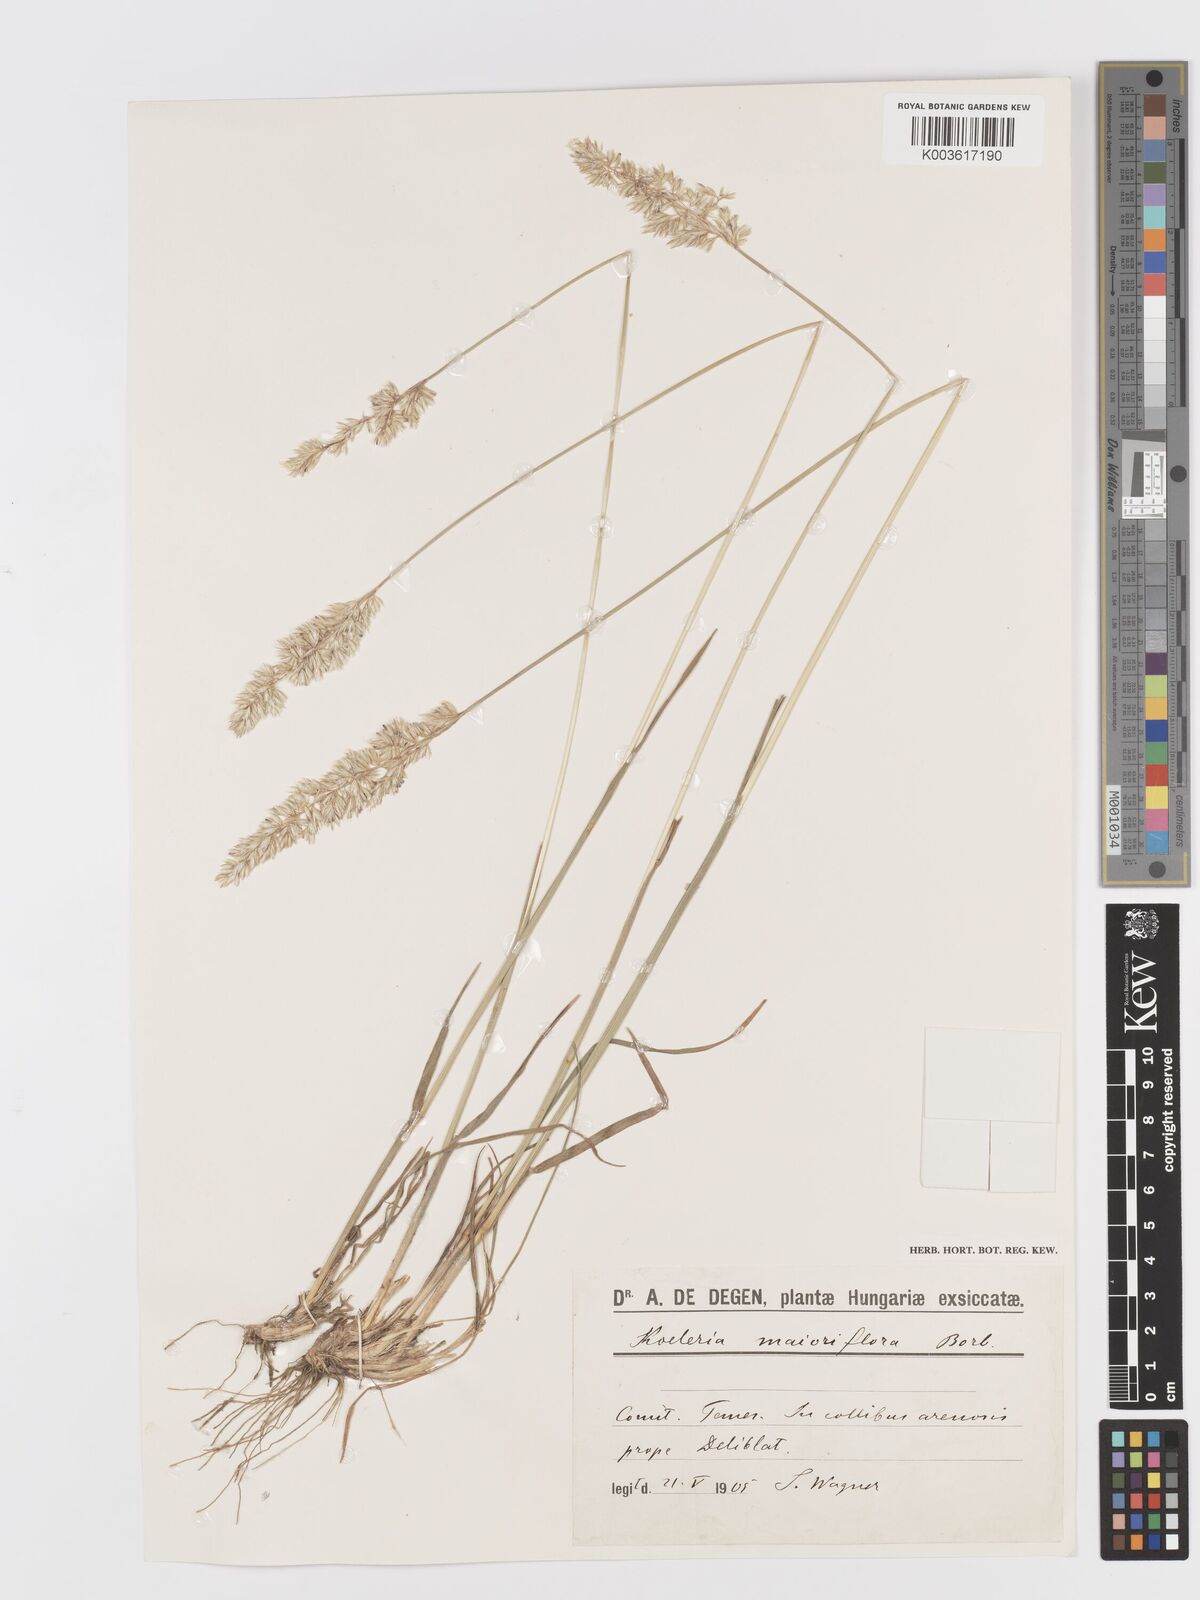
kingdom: Plantae
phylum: Tracheophyta
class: Liliopsida
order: Poales
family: Poaceae
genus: Koeleria
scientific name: Koeleria macrantha
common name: Crested hair-grass
